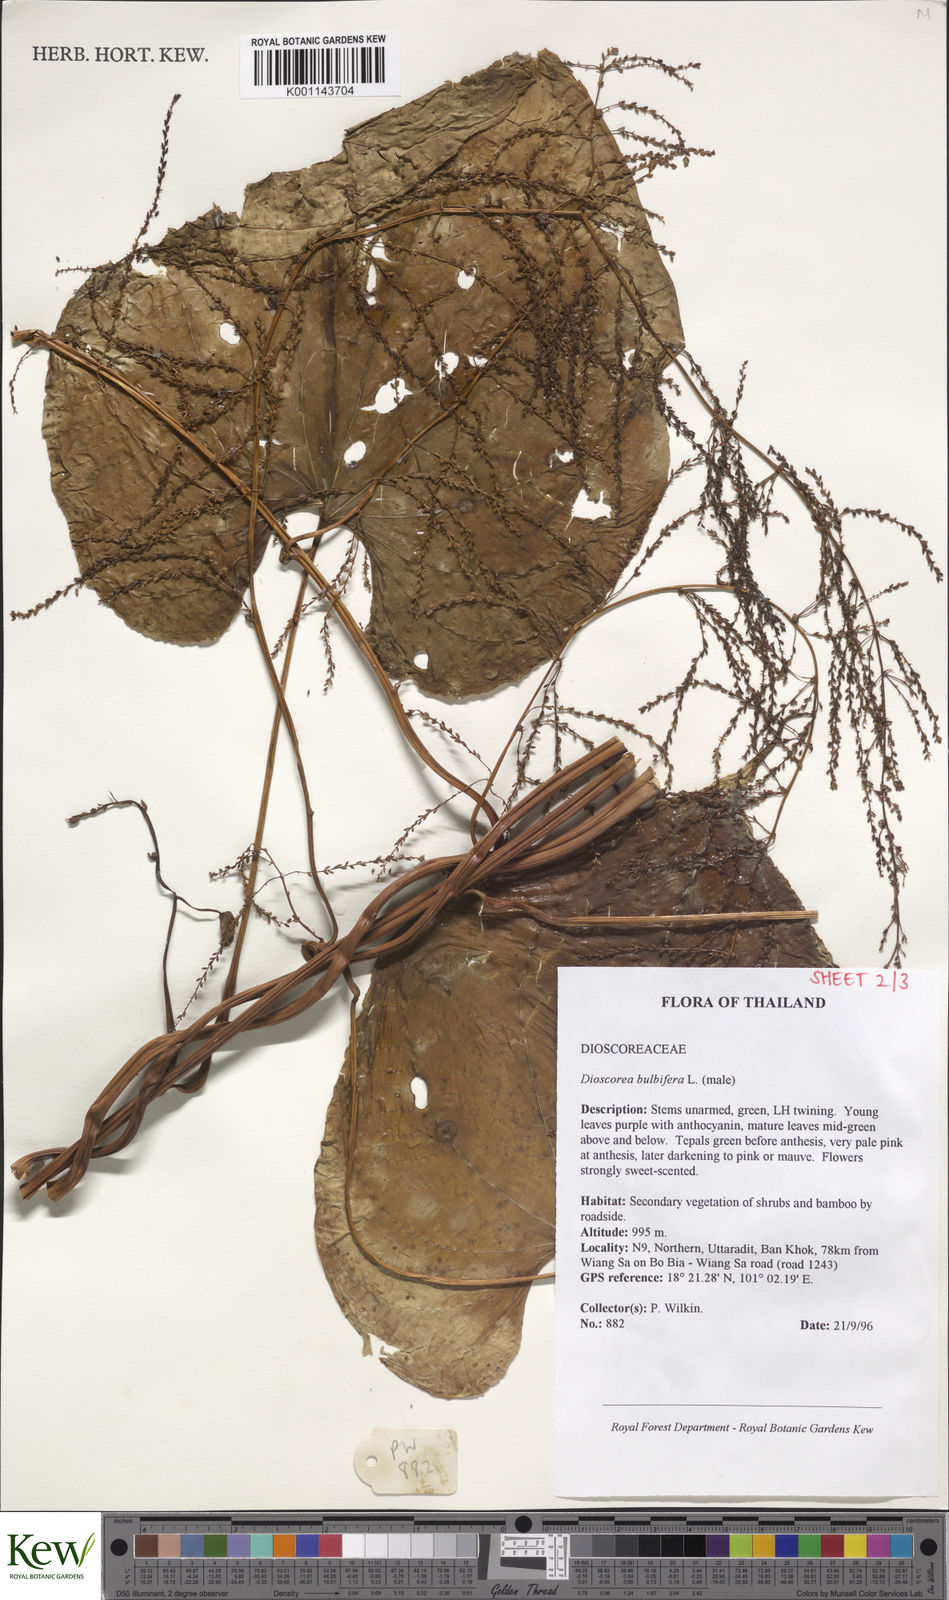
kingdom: Plantae
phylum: Tracheophyta
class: Liliopsida
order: Dioscoreales
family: Dioscoreaceae
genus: Dioscorea
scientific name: Dioscorea bulbifera
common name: Air yam
